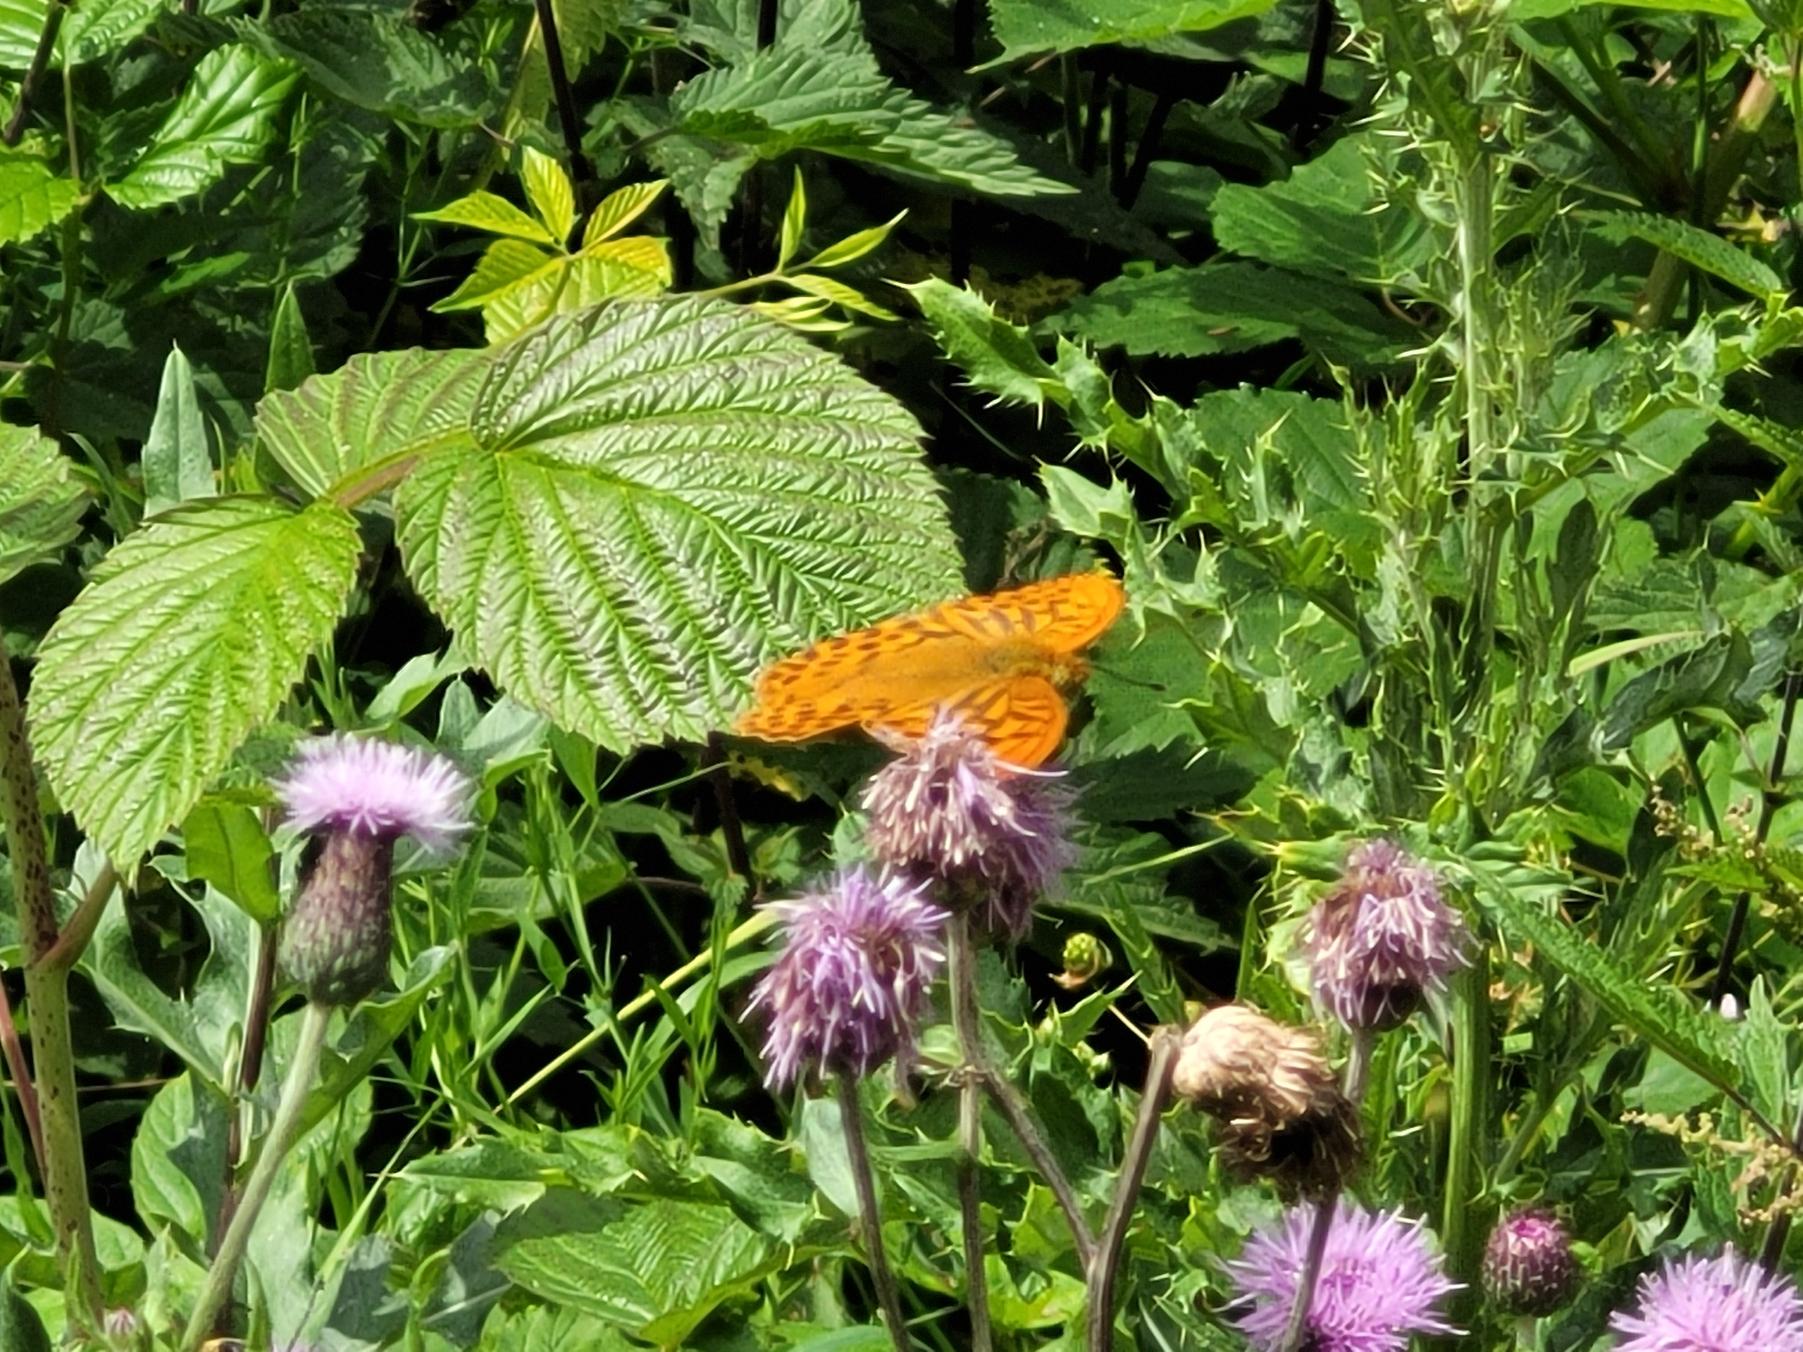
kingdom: Animalia
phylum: Arthropoda
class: Insecta
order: Lepidoptera
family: Nymphalidae
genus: Argynnis
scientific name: Argynnis paphia
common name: Kejserkåbe
